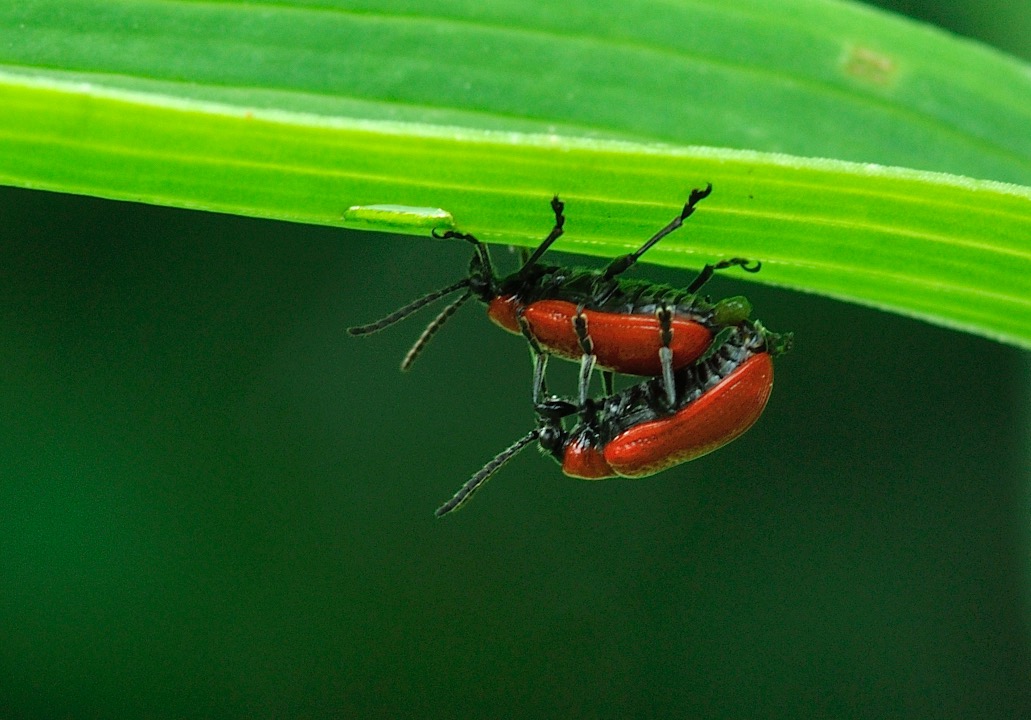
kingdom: Animalia
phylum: Arthropoda
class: Insecta
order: Coleoptera
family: Chrysomelidae
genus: Lilioceris
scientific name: Lilioceris lilii
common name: Liljebille
